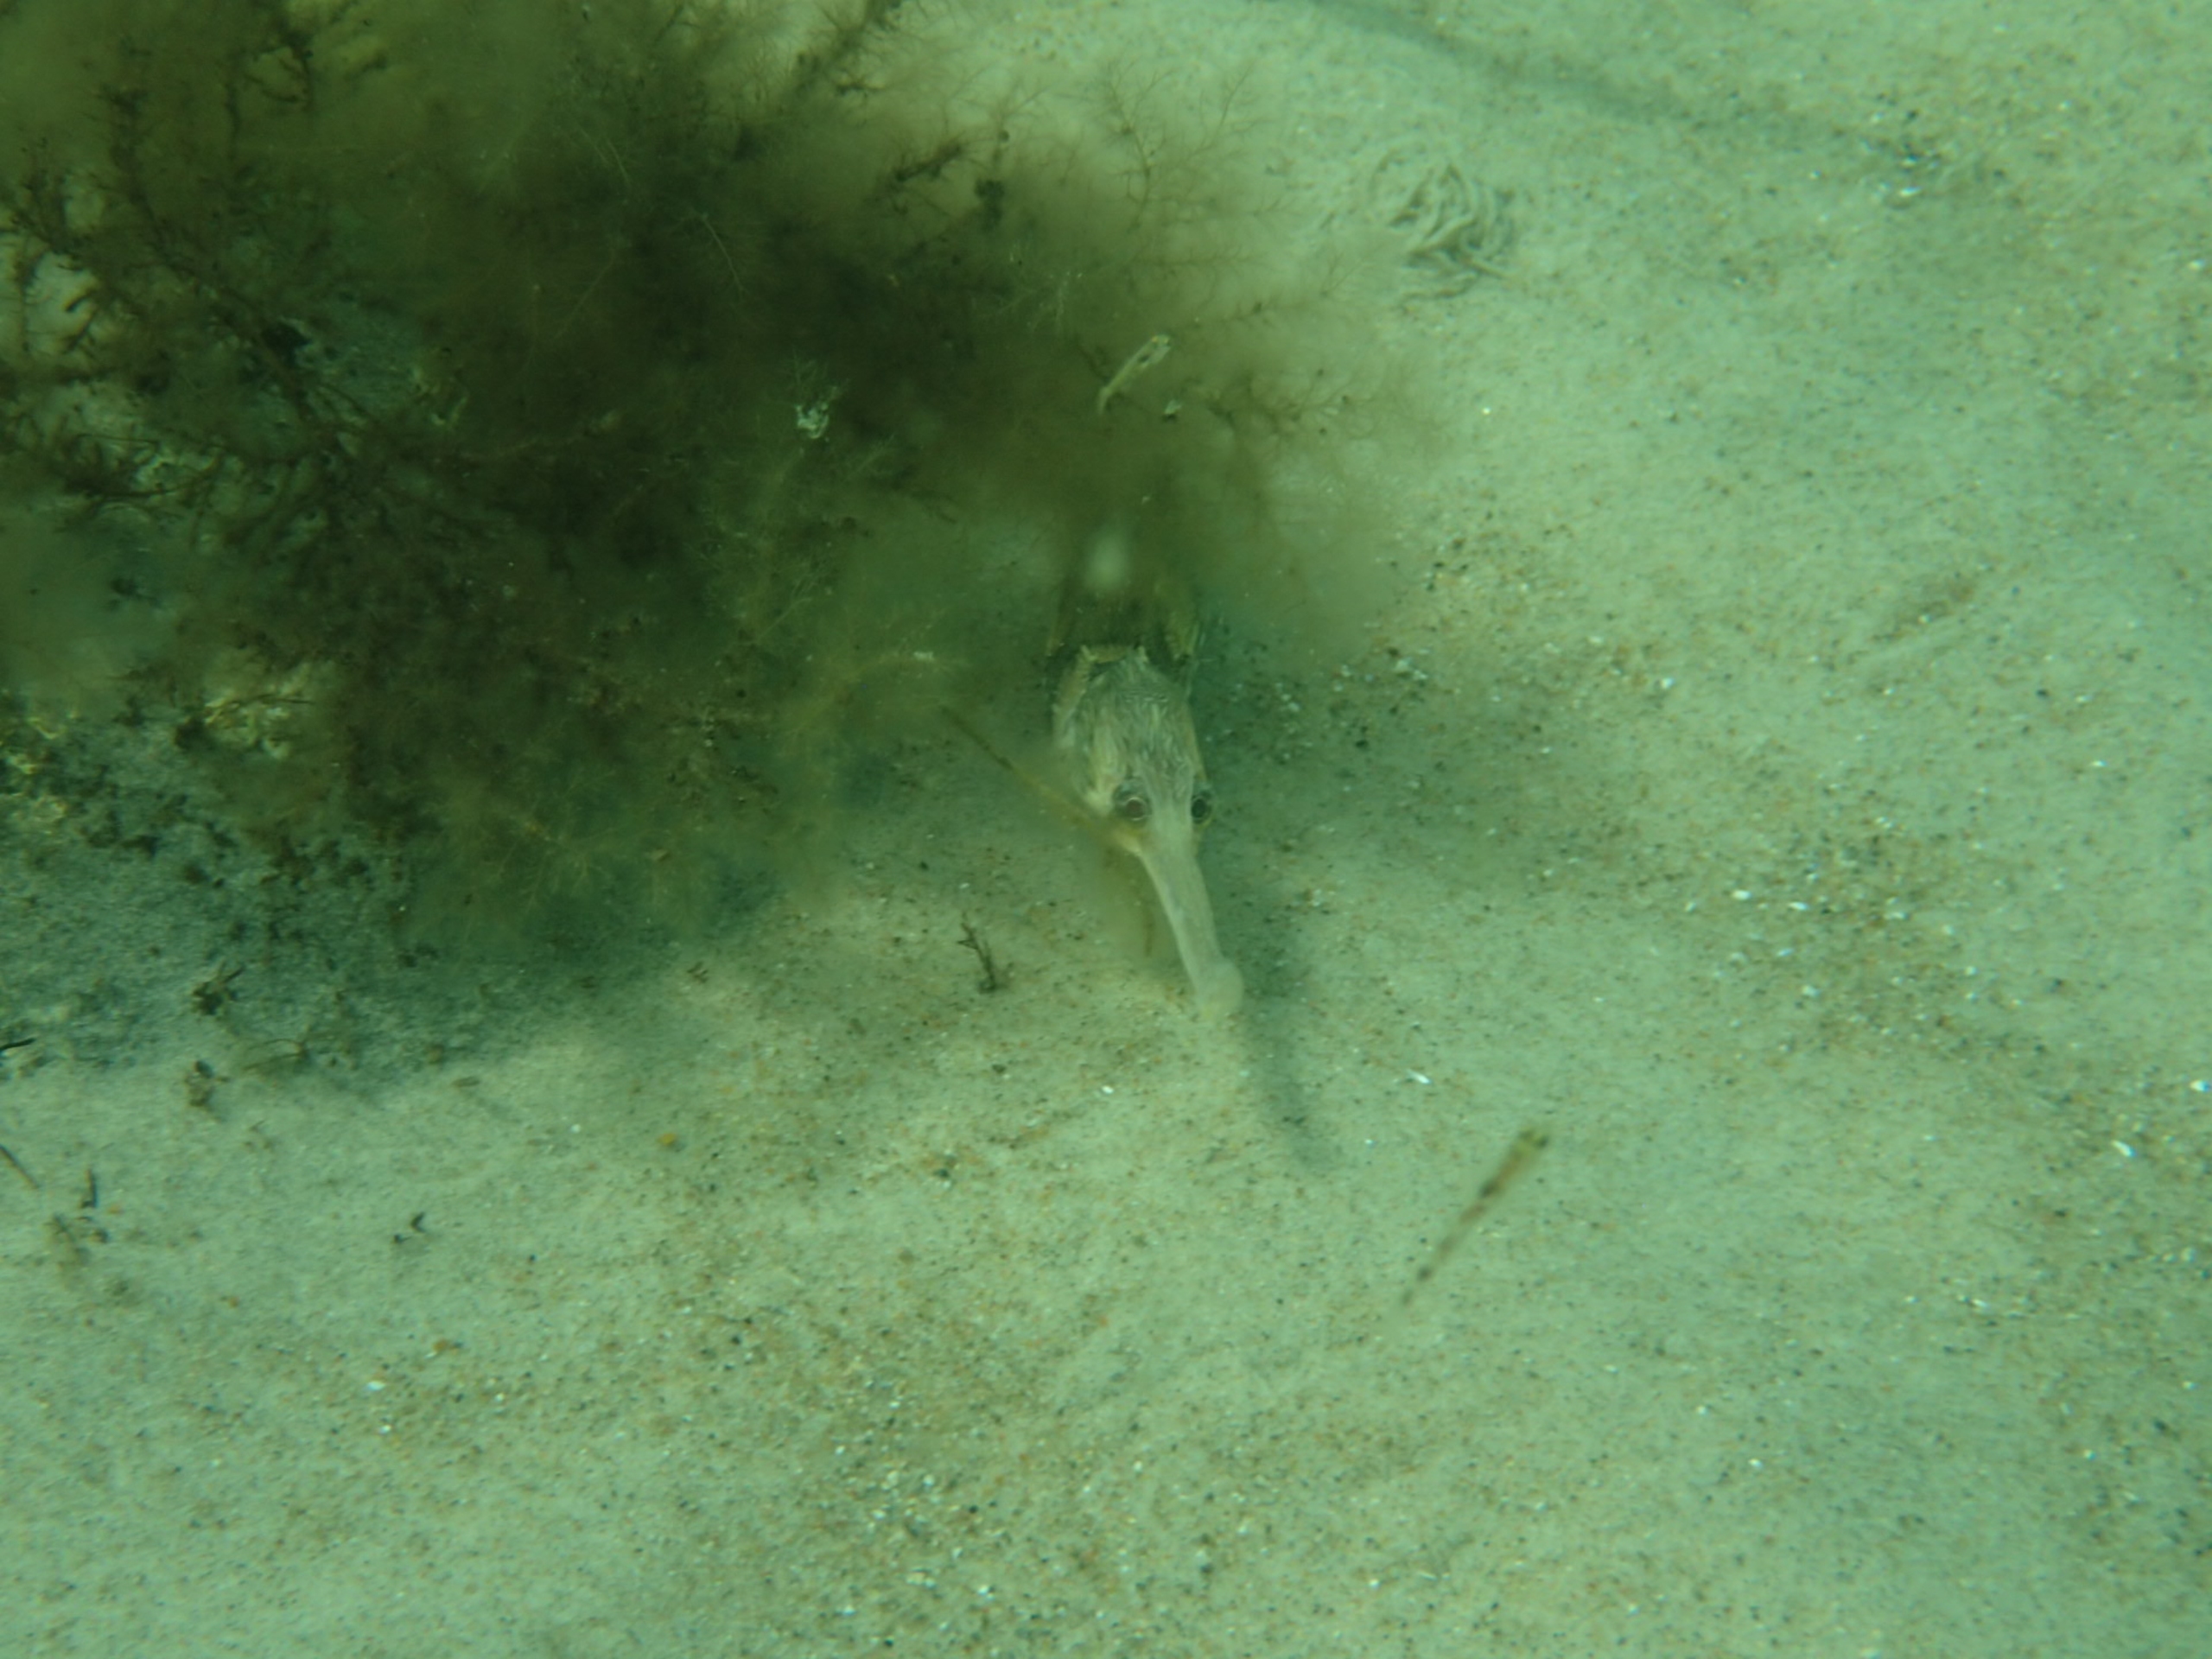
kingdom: Animalia
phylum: Chordata
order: Syngnathiformes
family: Syngnathidae
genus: Syngnathus
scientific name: Syngnathus acus
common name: Stor tangnål
